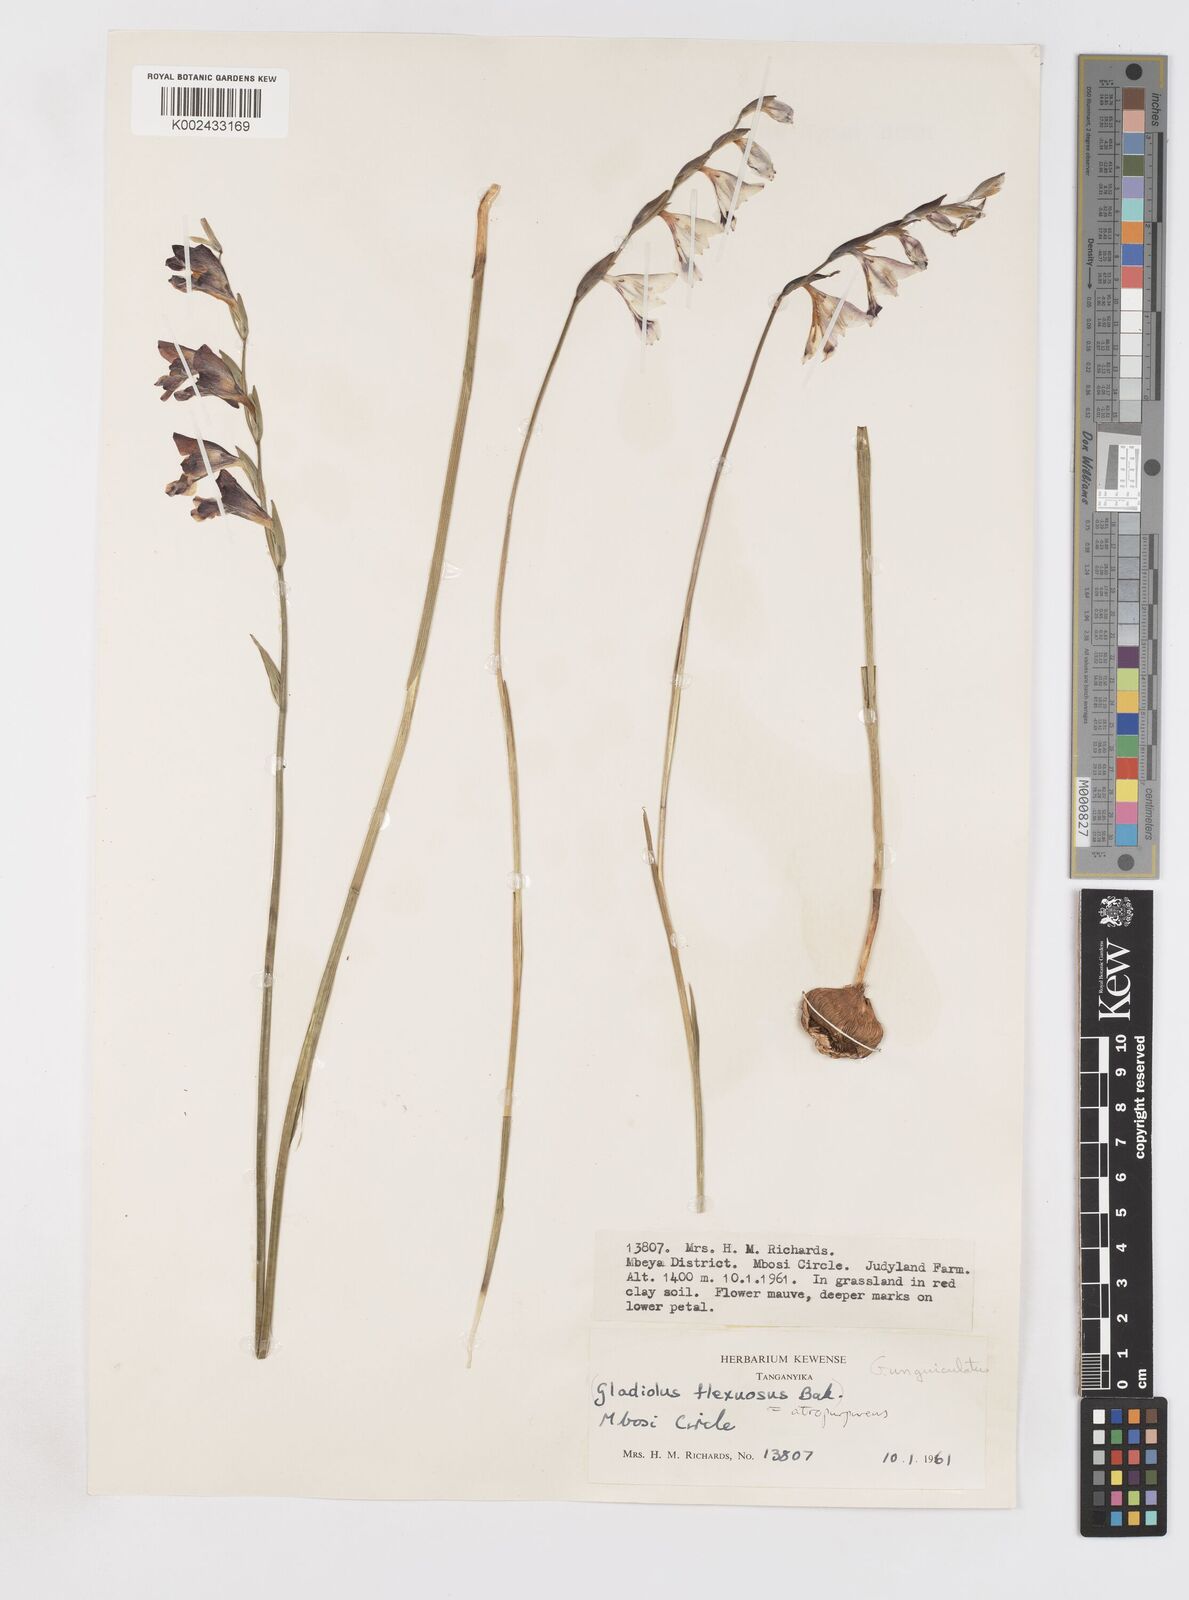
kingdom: Plantae
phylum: Tracheophyta
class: Liliopsida
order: Asparagales
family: Iridaceae
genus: Gladiolus
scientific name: Gladiolus atropurpureus
